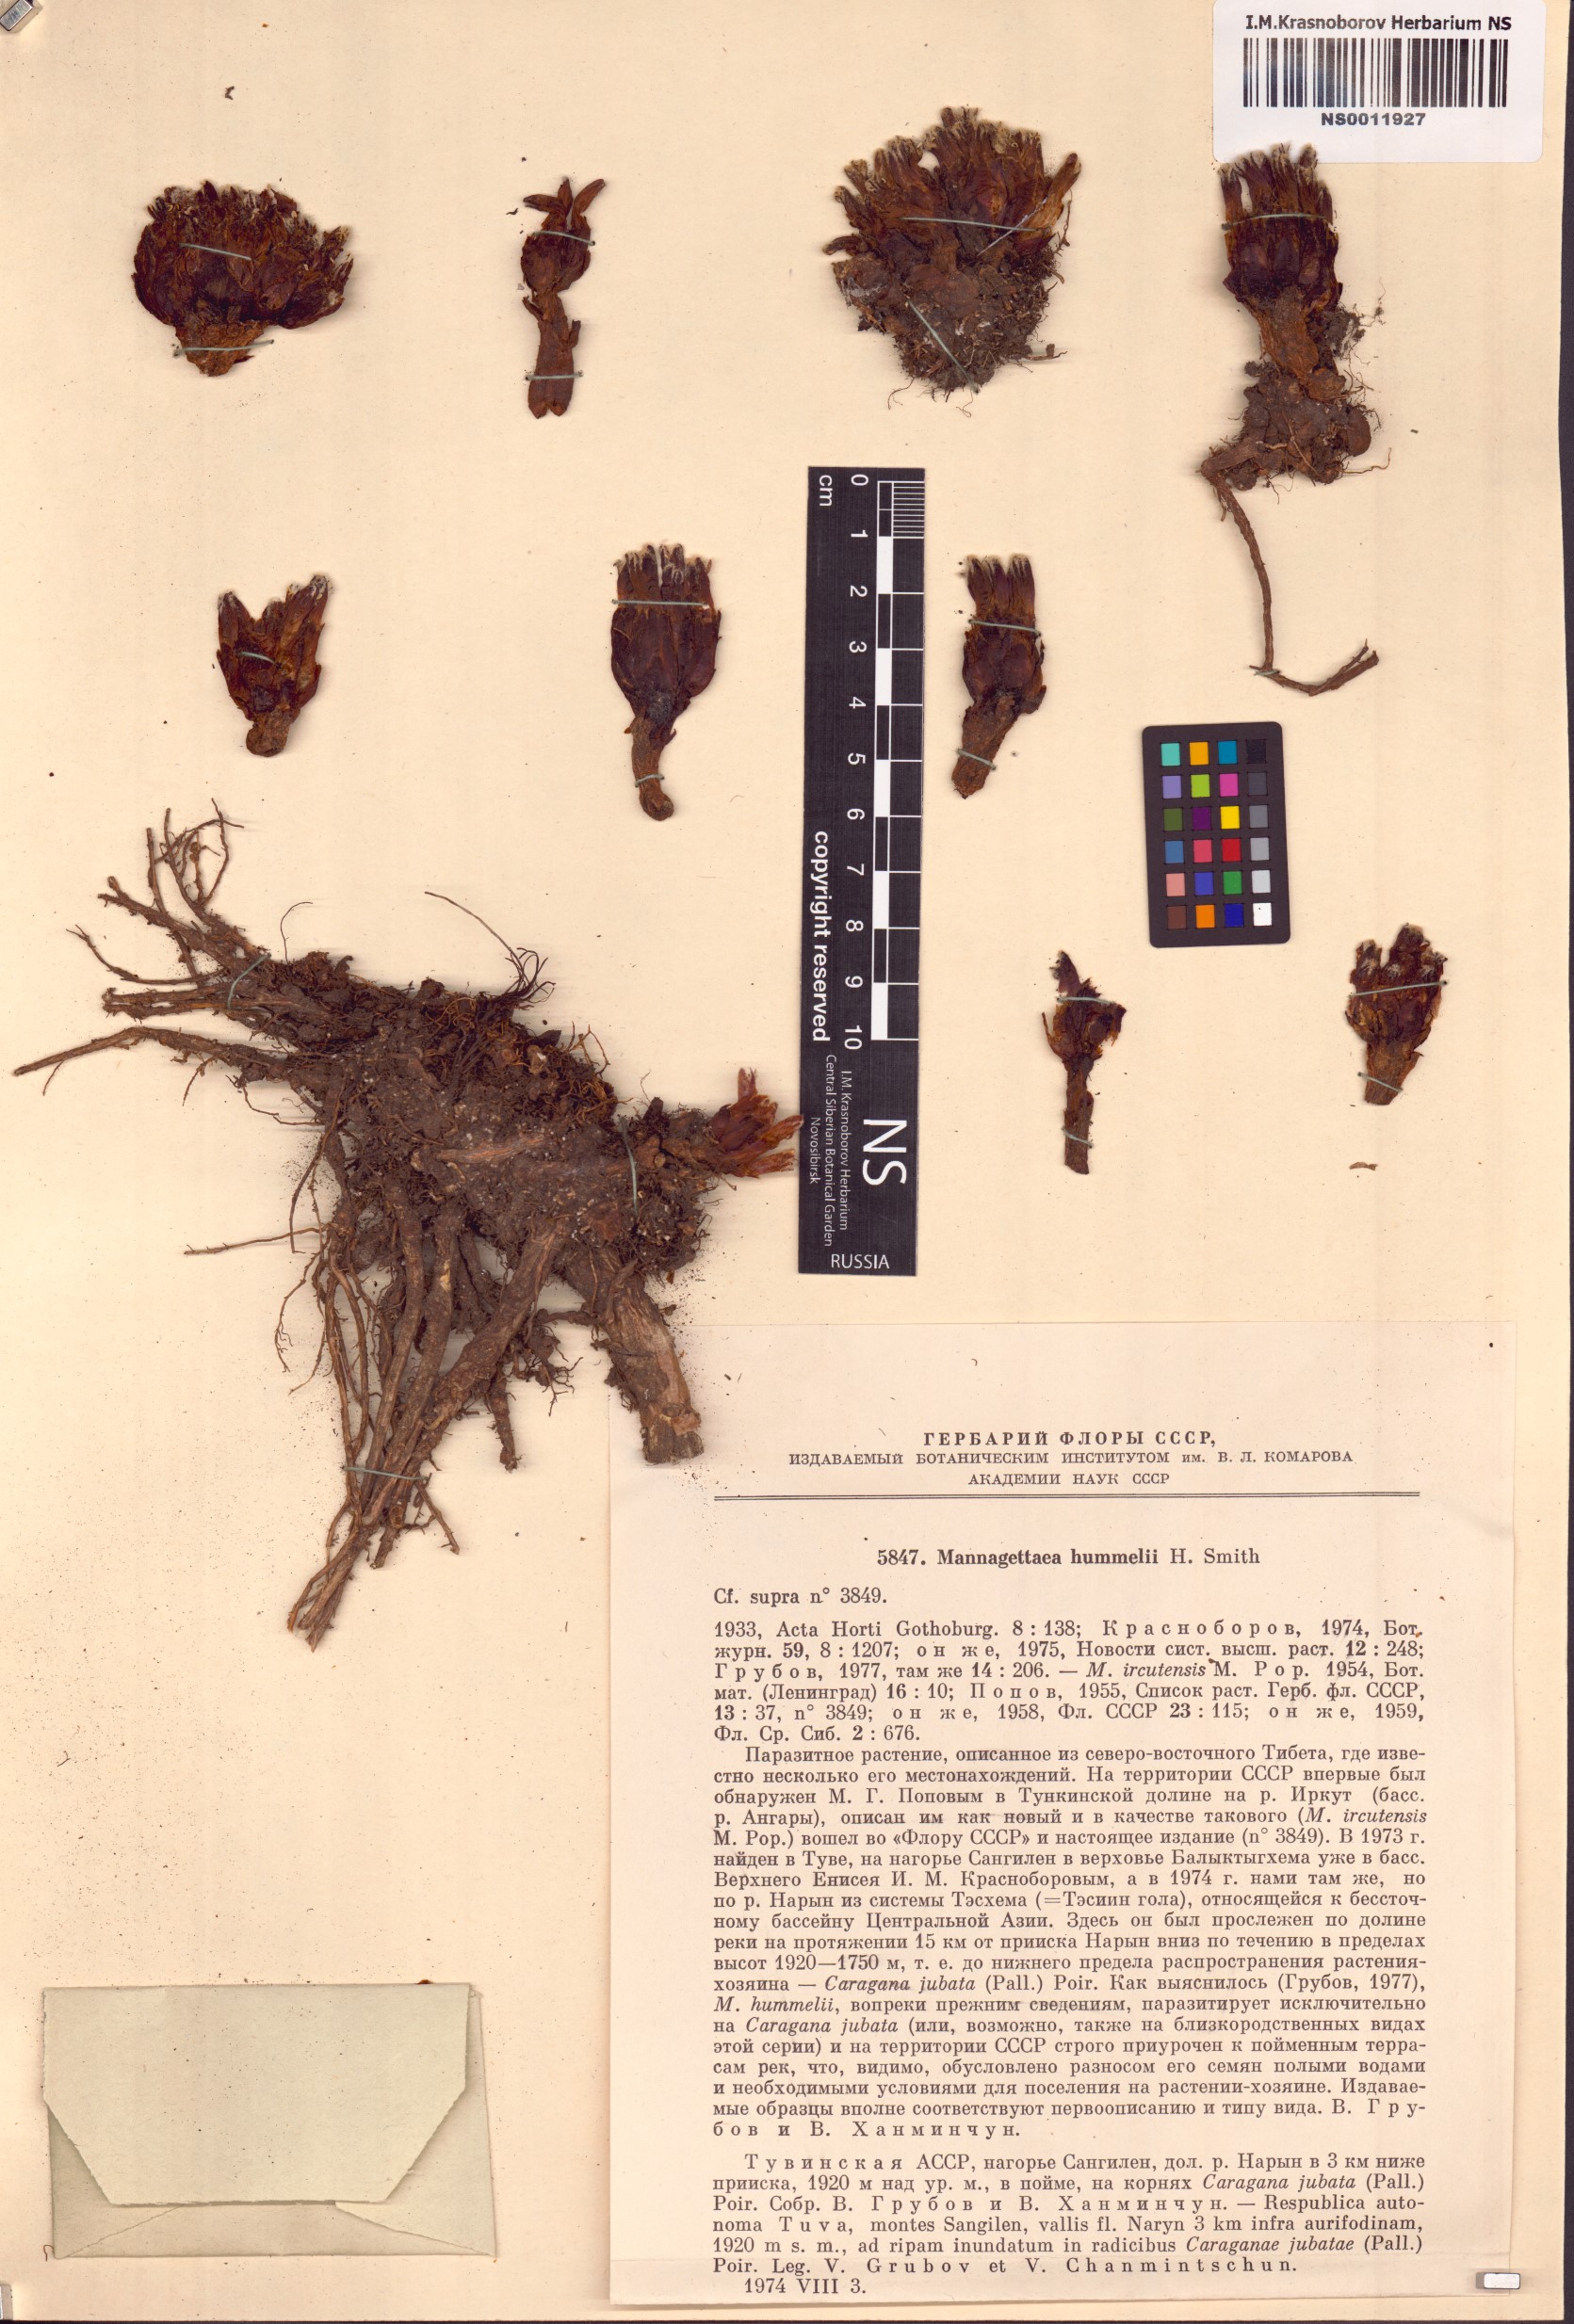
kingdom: Plantae
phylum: Tracheophyta
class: Magnoliopsida
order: Lamiales
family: Orobanchaceae
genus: Mannagettaea
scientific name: Mannagettaea hummelii
